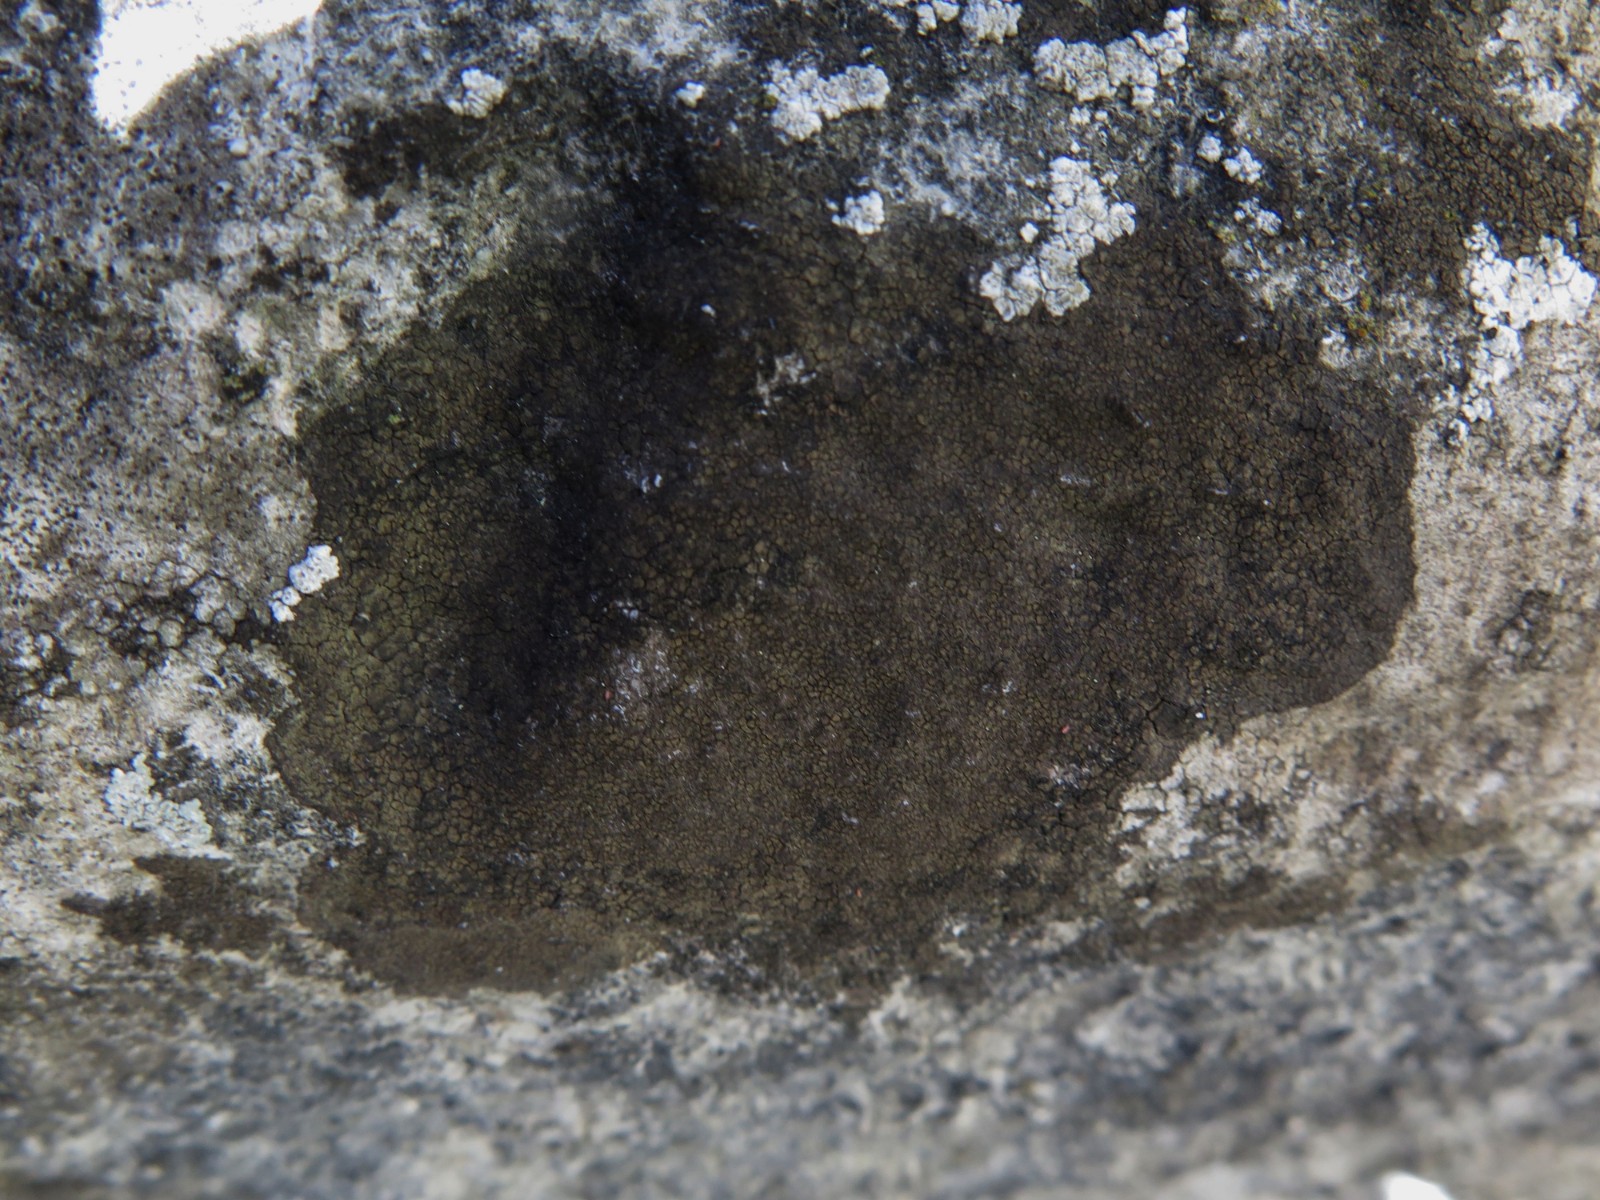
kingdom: Fungi
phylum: Ascomycota
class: Eurotiomycetes
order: Verrucariales
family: Verrucariaceae
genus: Verrucaria
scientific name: Verrucaria nigrescens
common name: sortbrun vortelav
